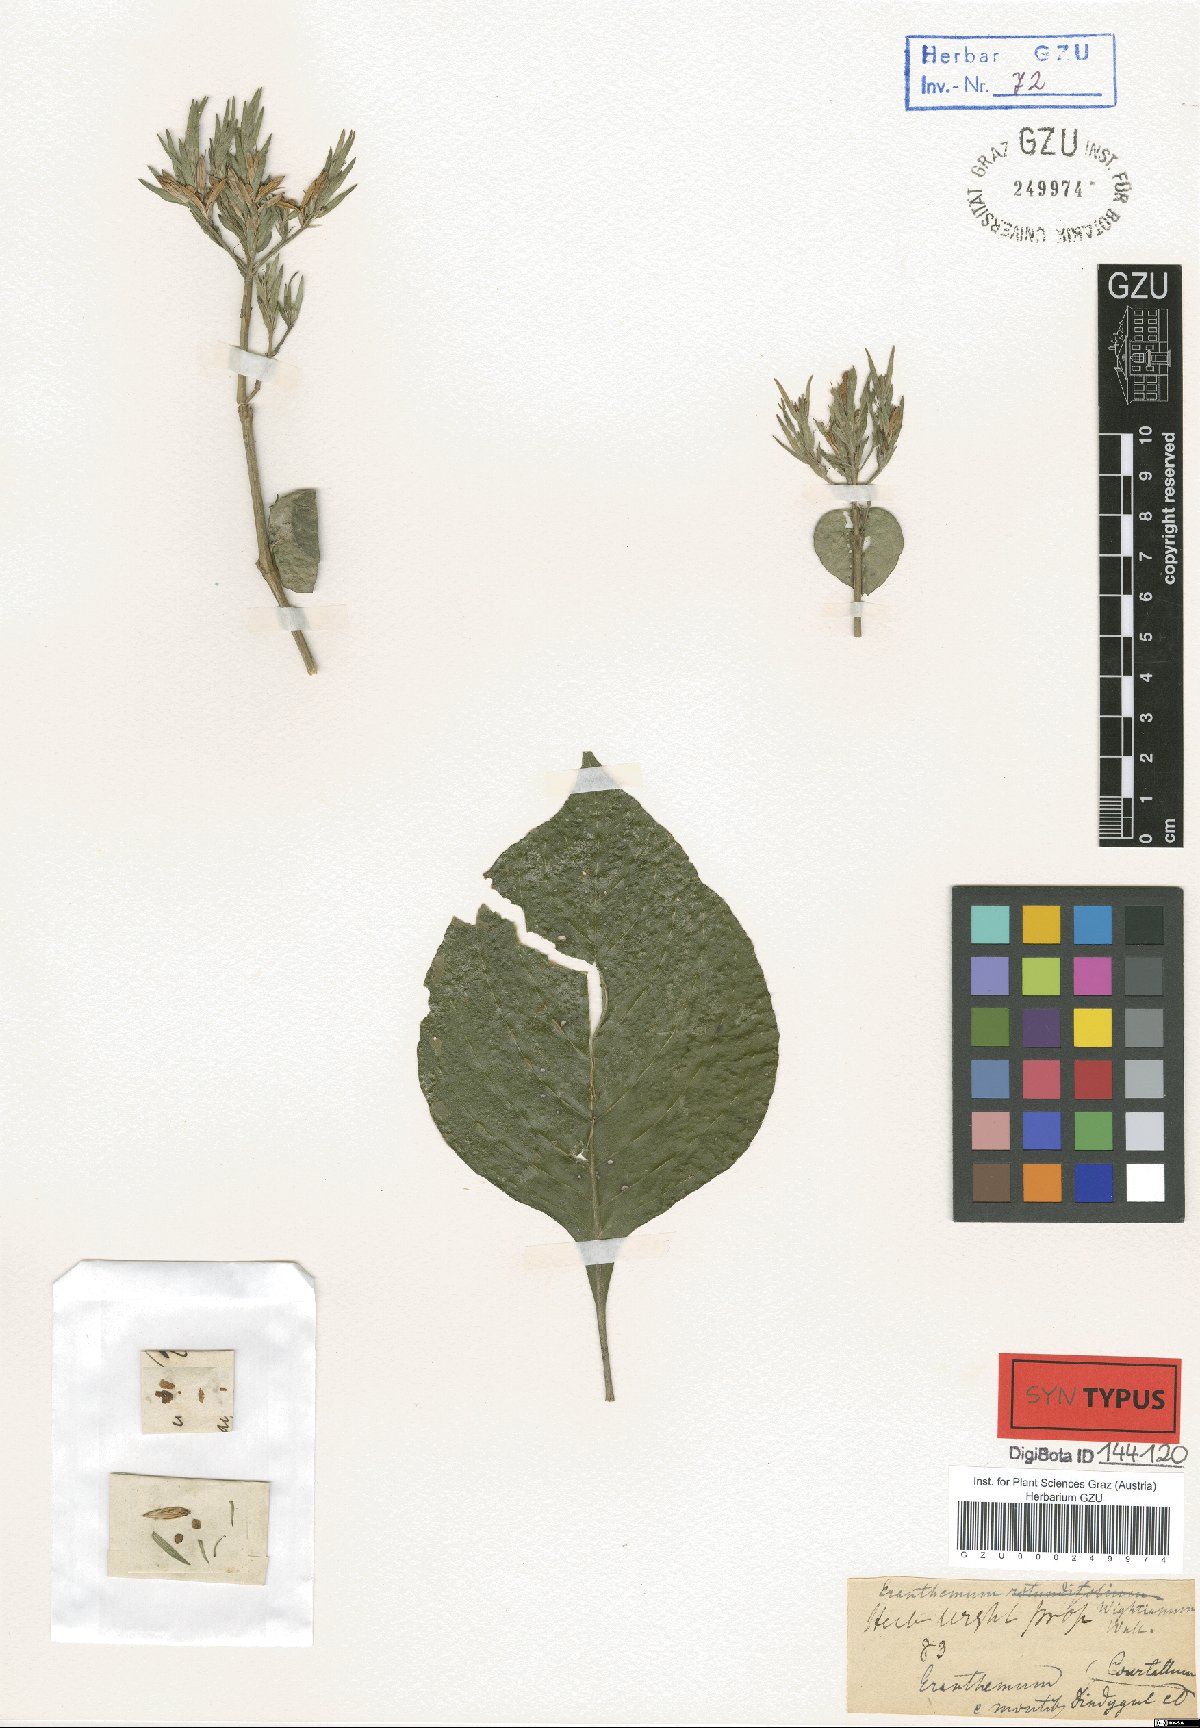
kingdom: Plantae
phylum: Tracheophyta
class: Magnoliopsida
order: Lamiales
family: Acanthaceae
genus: Eranthemum
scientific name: Eranthemum capense
